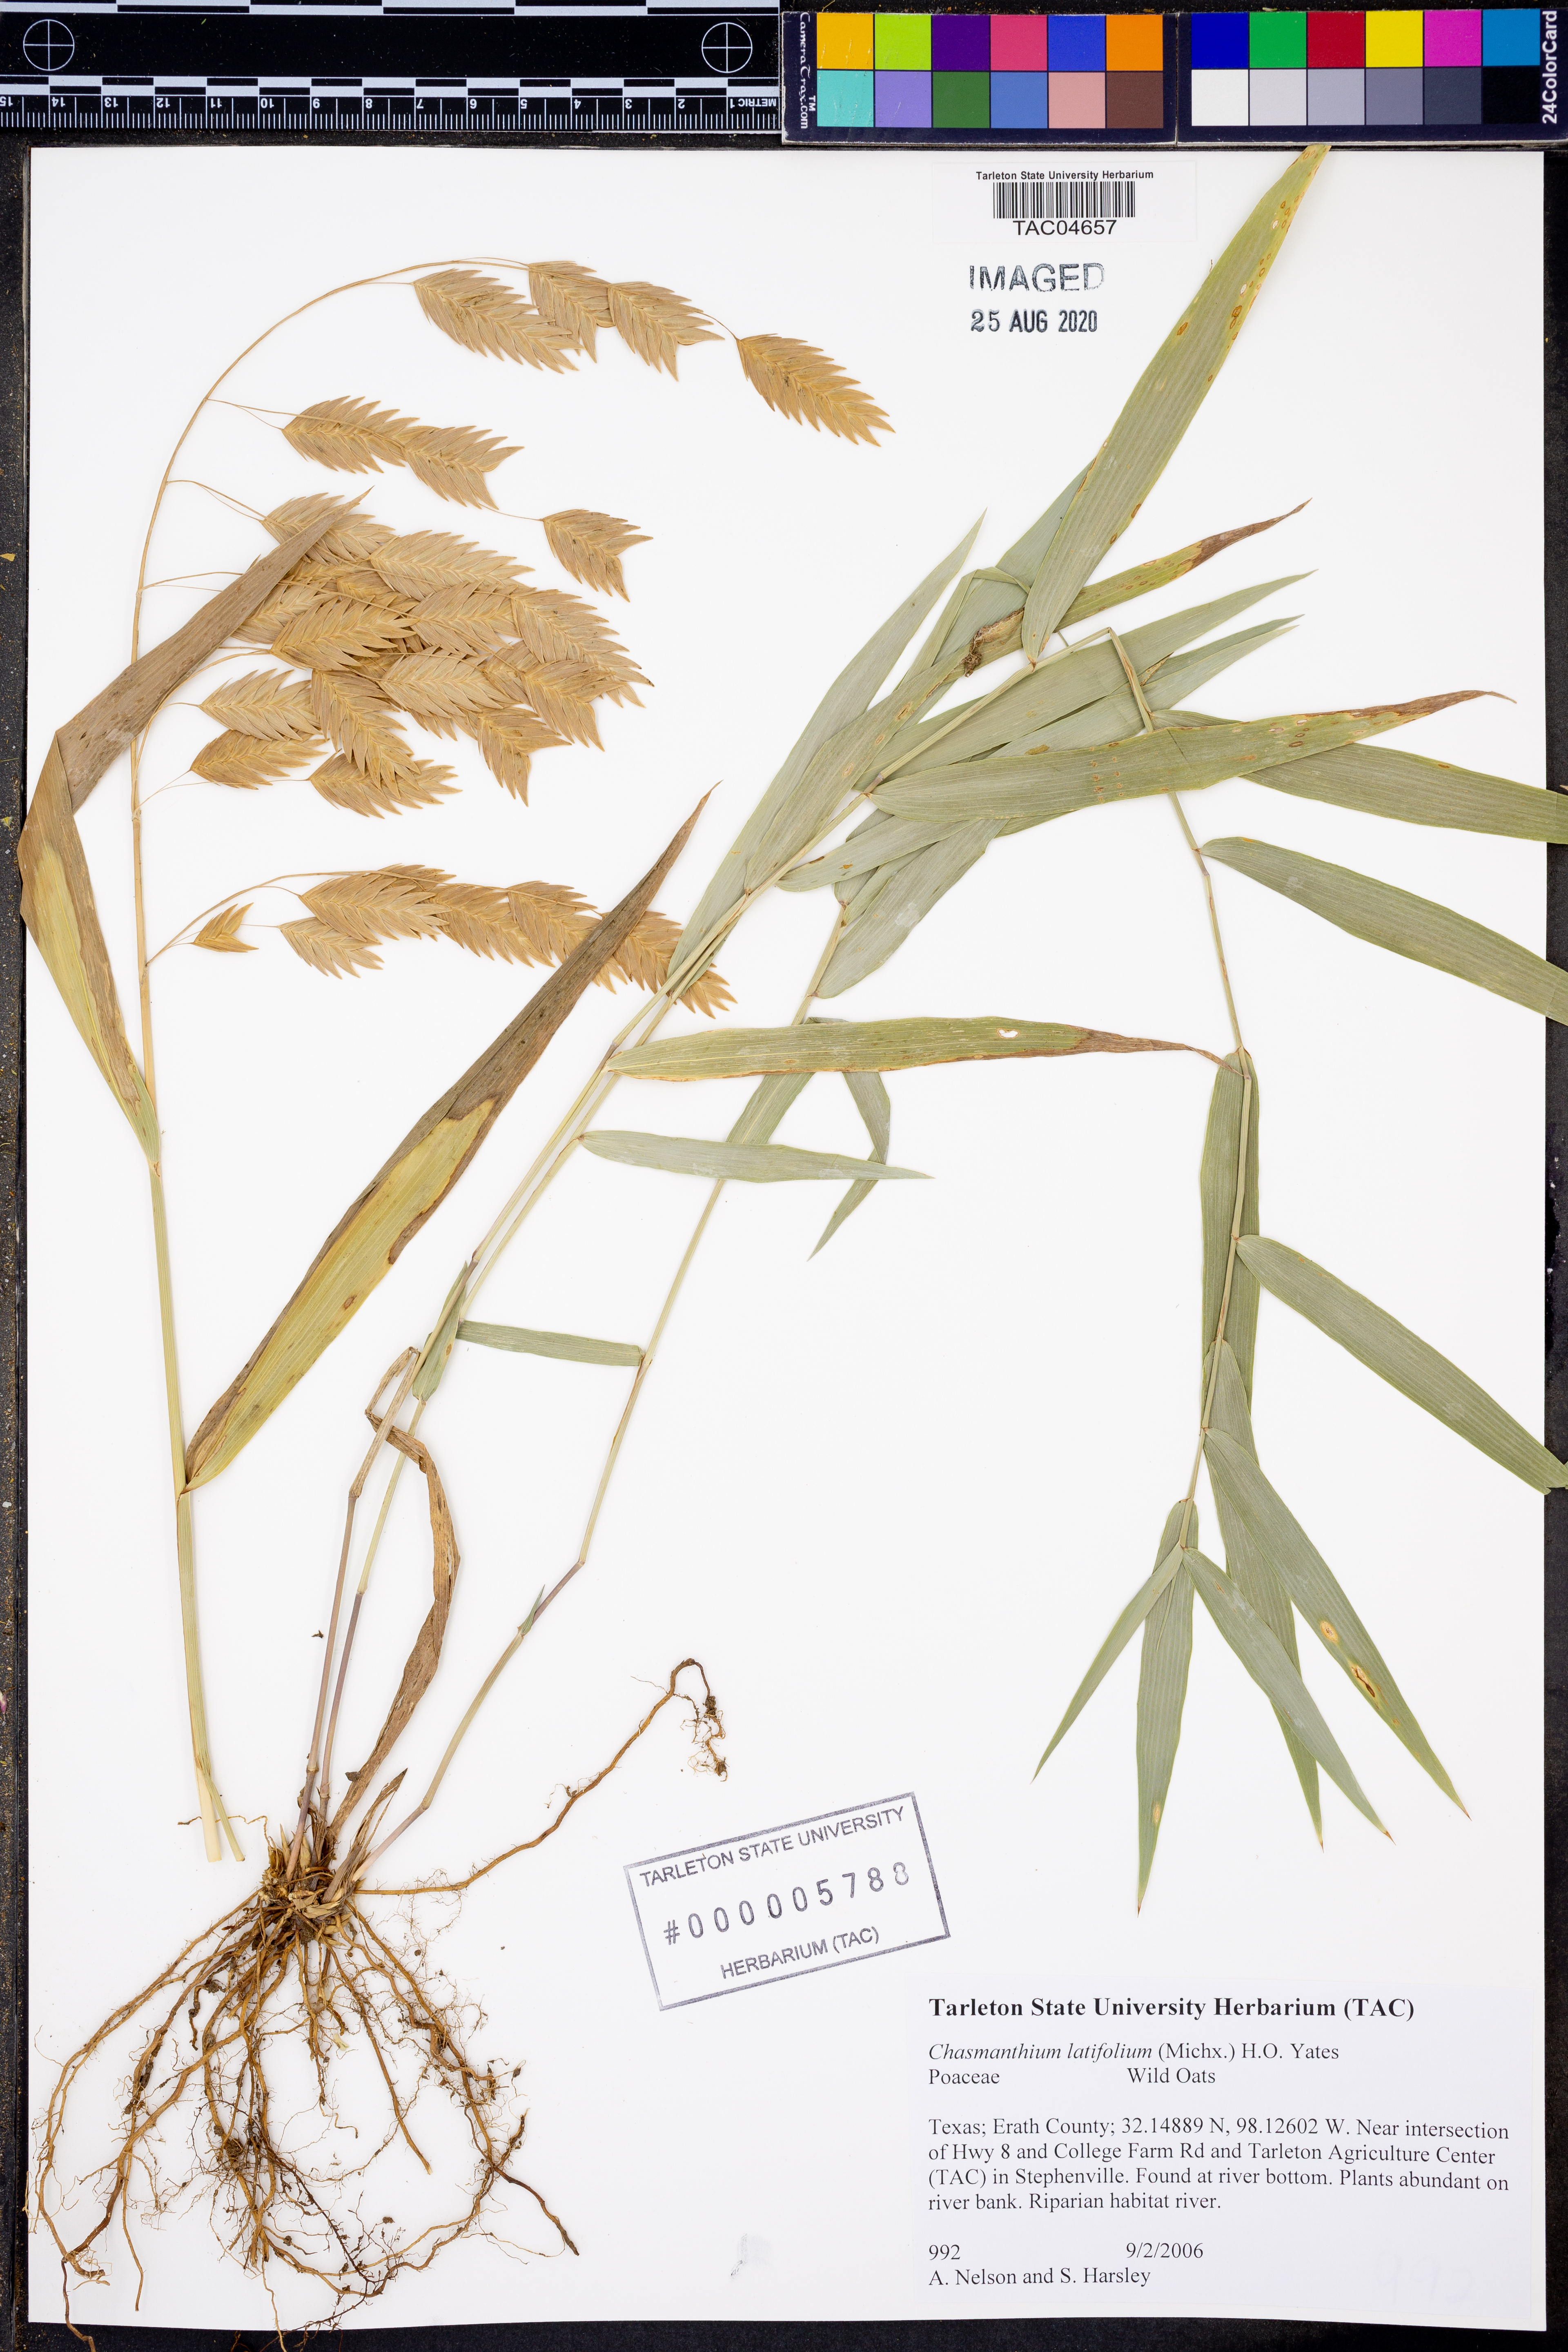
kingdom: Plantae
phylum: Tracheophyta
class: Liliopsida
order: Poales
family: Poaceae
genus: Chasmanthium
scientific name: Chasmanthium latifolium
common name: Broad-leaved chasmanthium
